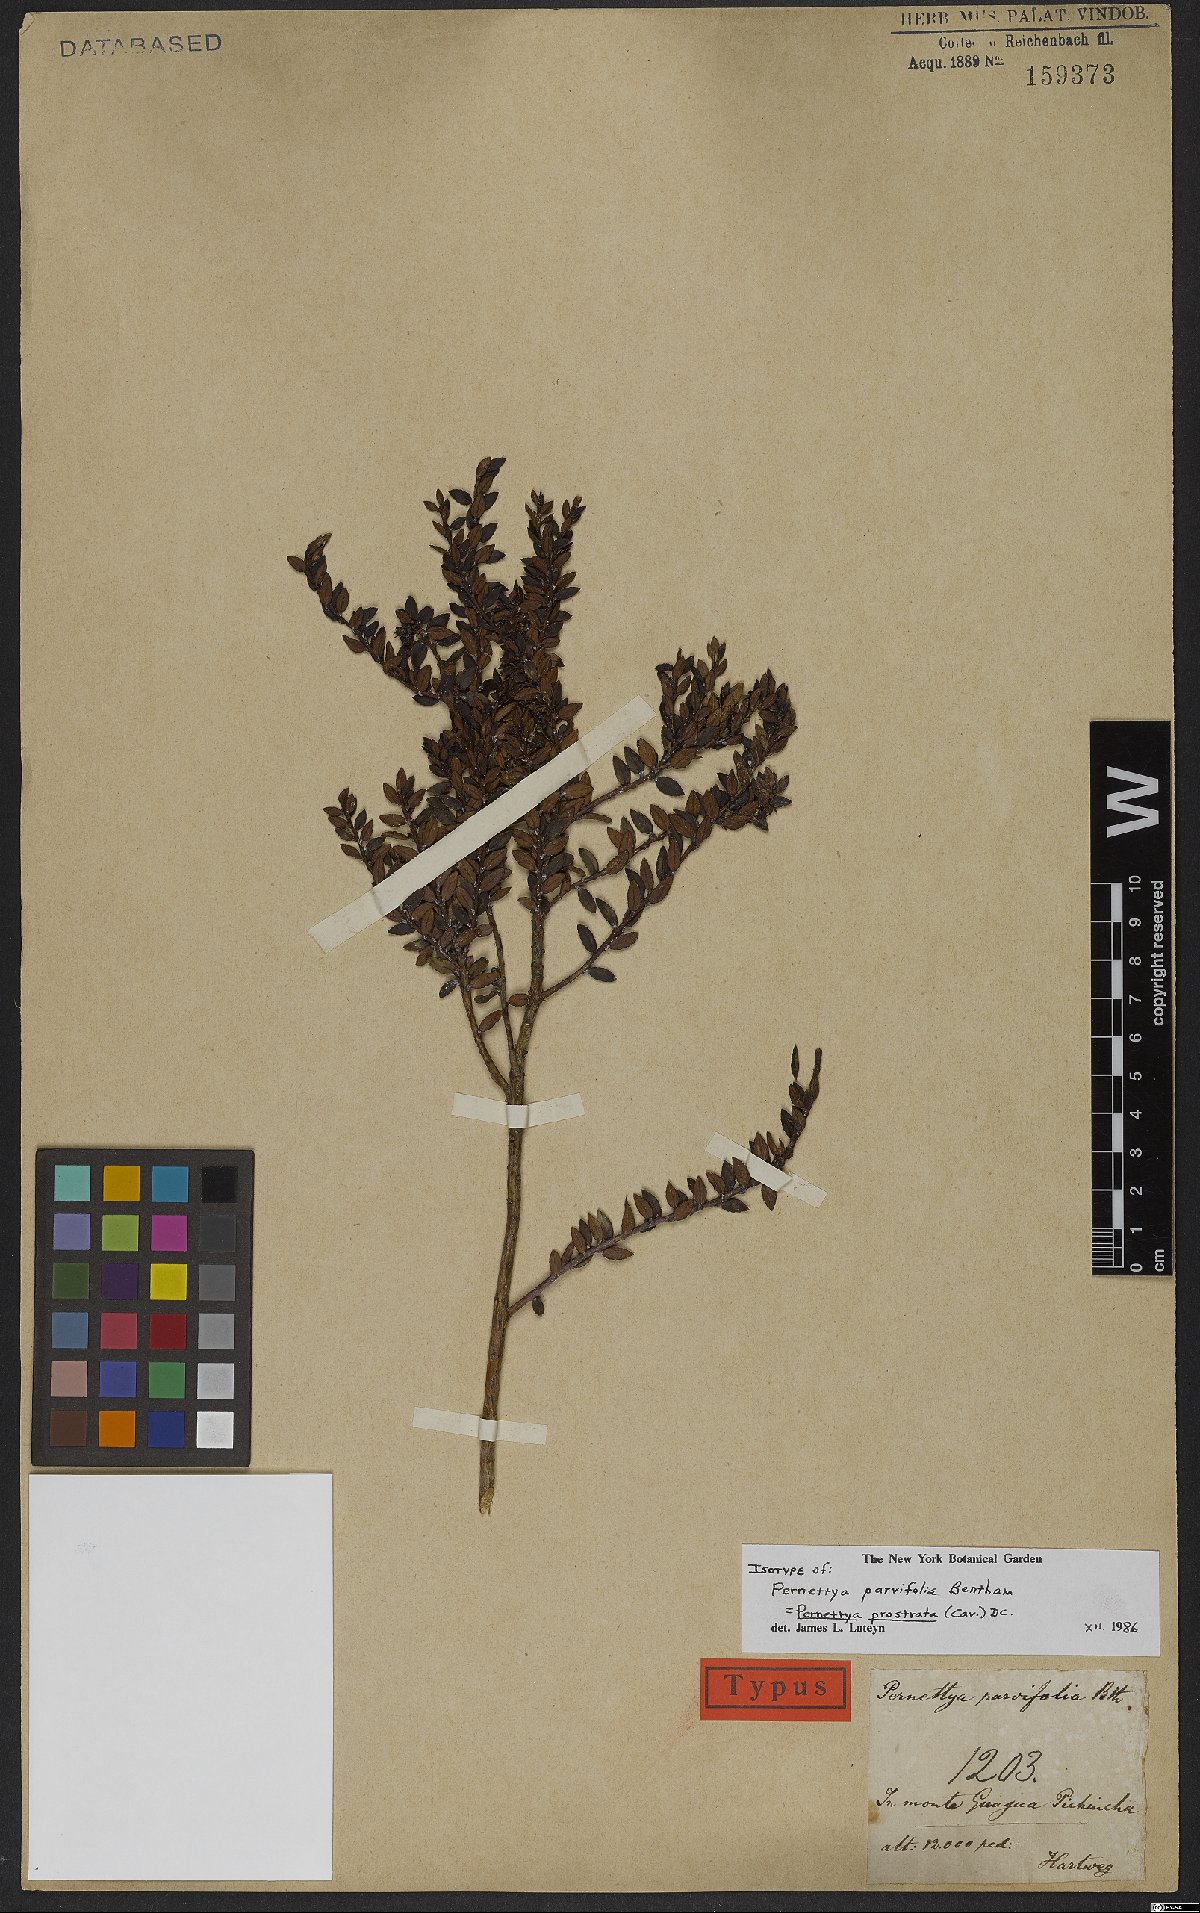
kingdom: Plantae
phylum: Tracheophyta
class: Magnoliopsida
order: Ericales
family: Ericaceae
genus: Gaultheria
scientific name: Gaultheria myrsinoides
